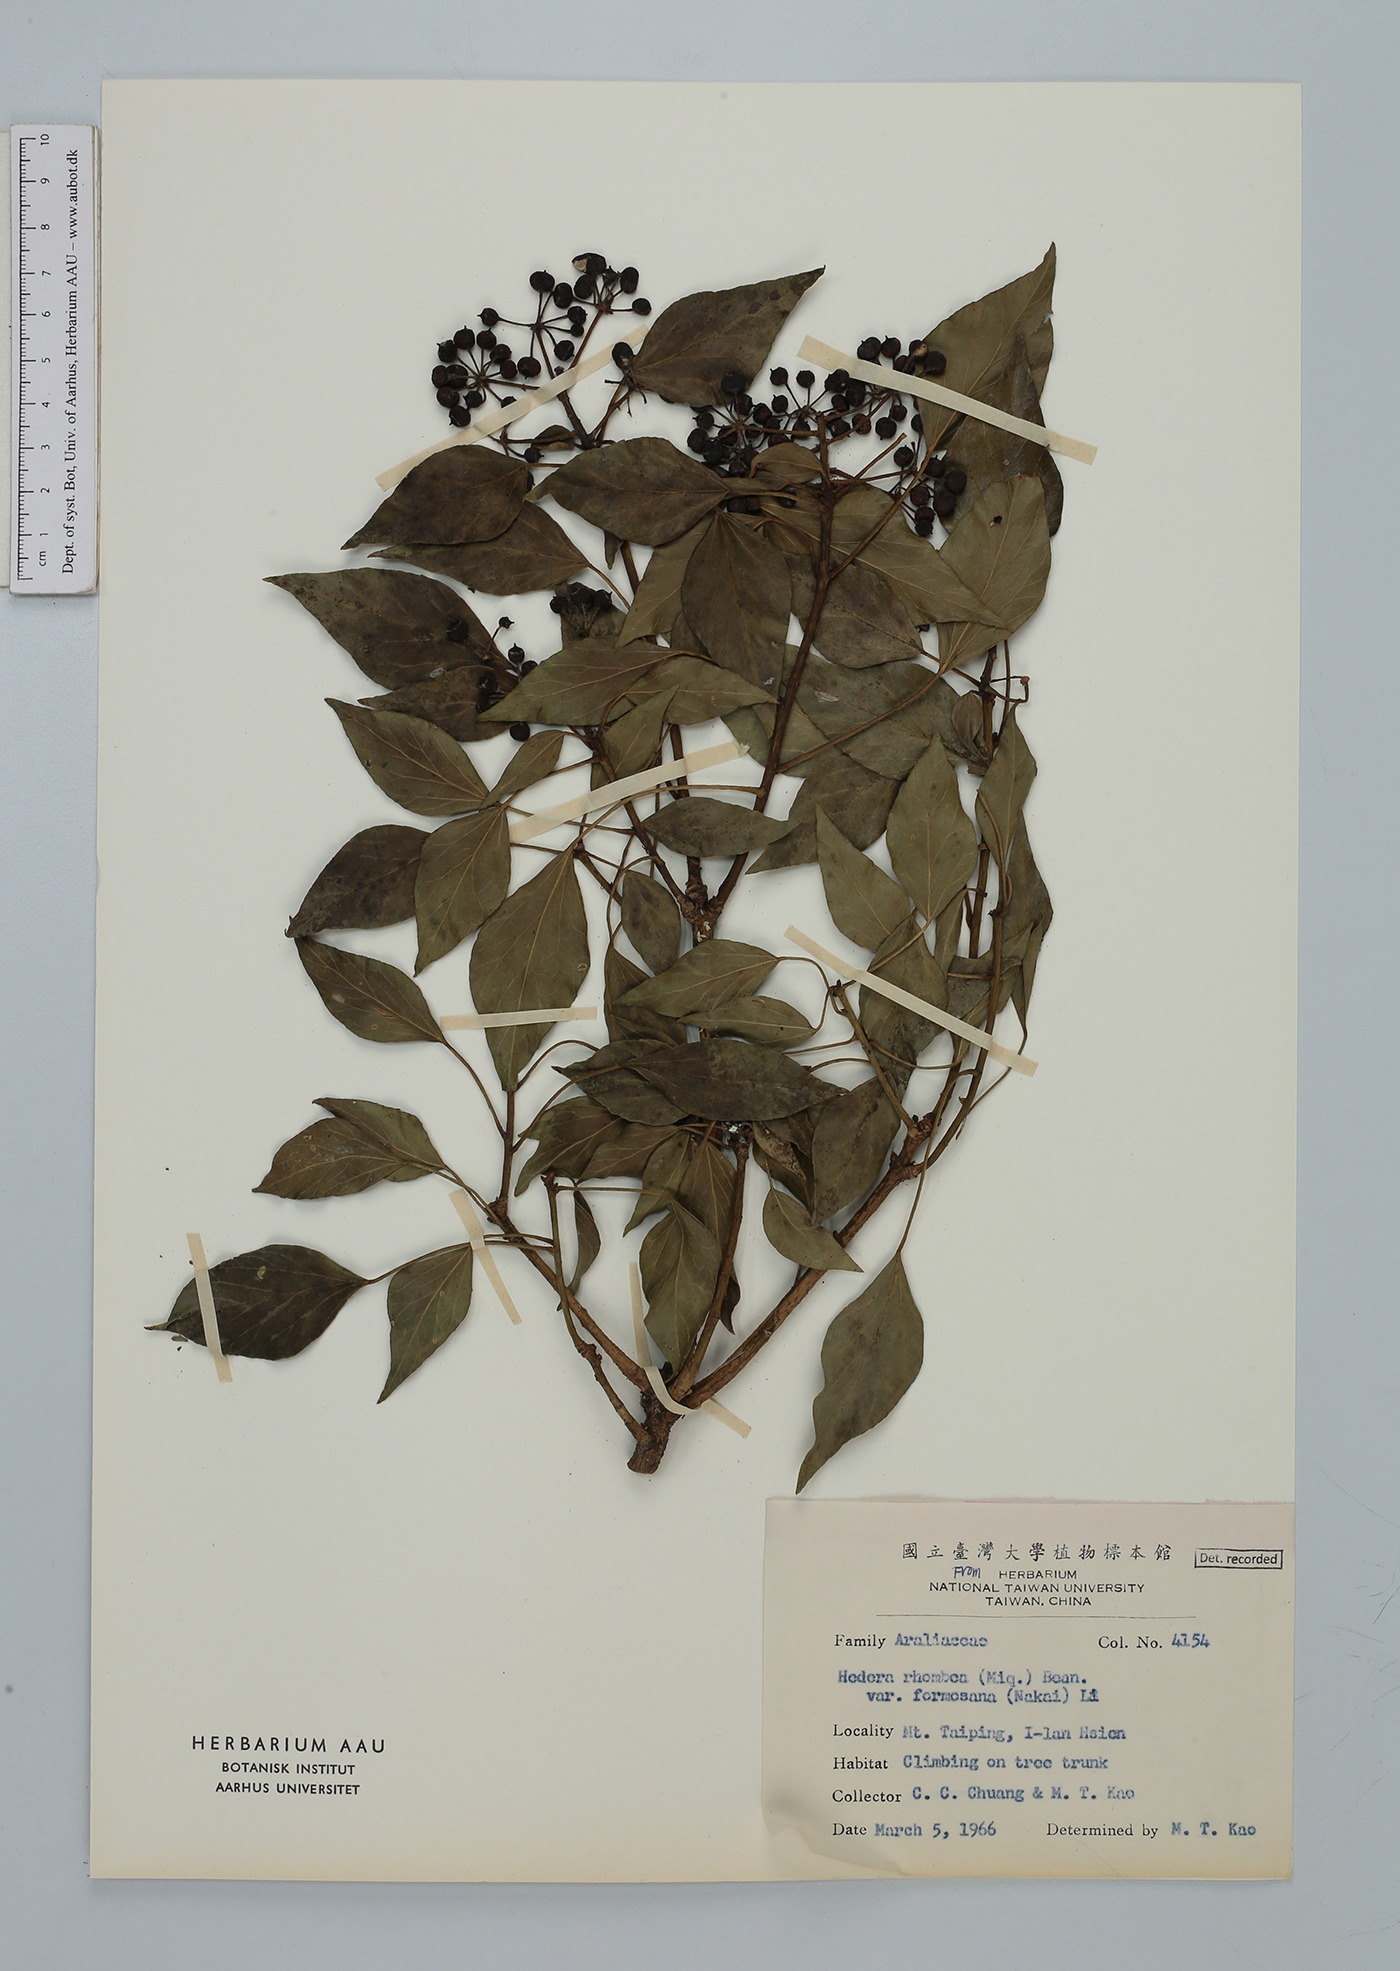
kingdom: Plantae
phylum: Tracheophyta
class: Magnoliopsida
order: Apiales
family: Araliaceae
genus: Hedera
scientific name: Hedera rhombea
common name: Japanese ivy
